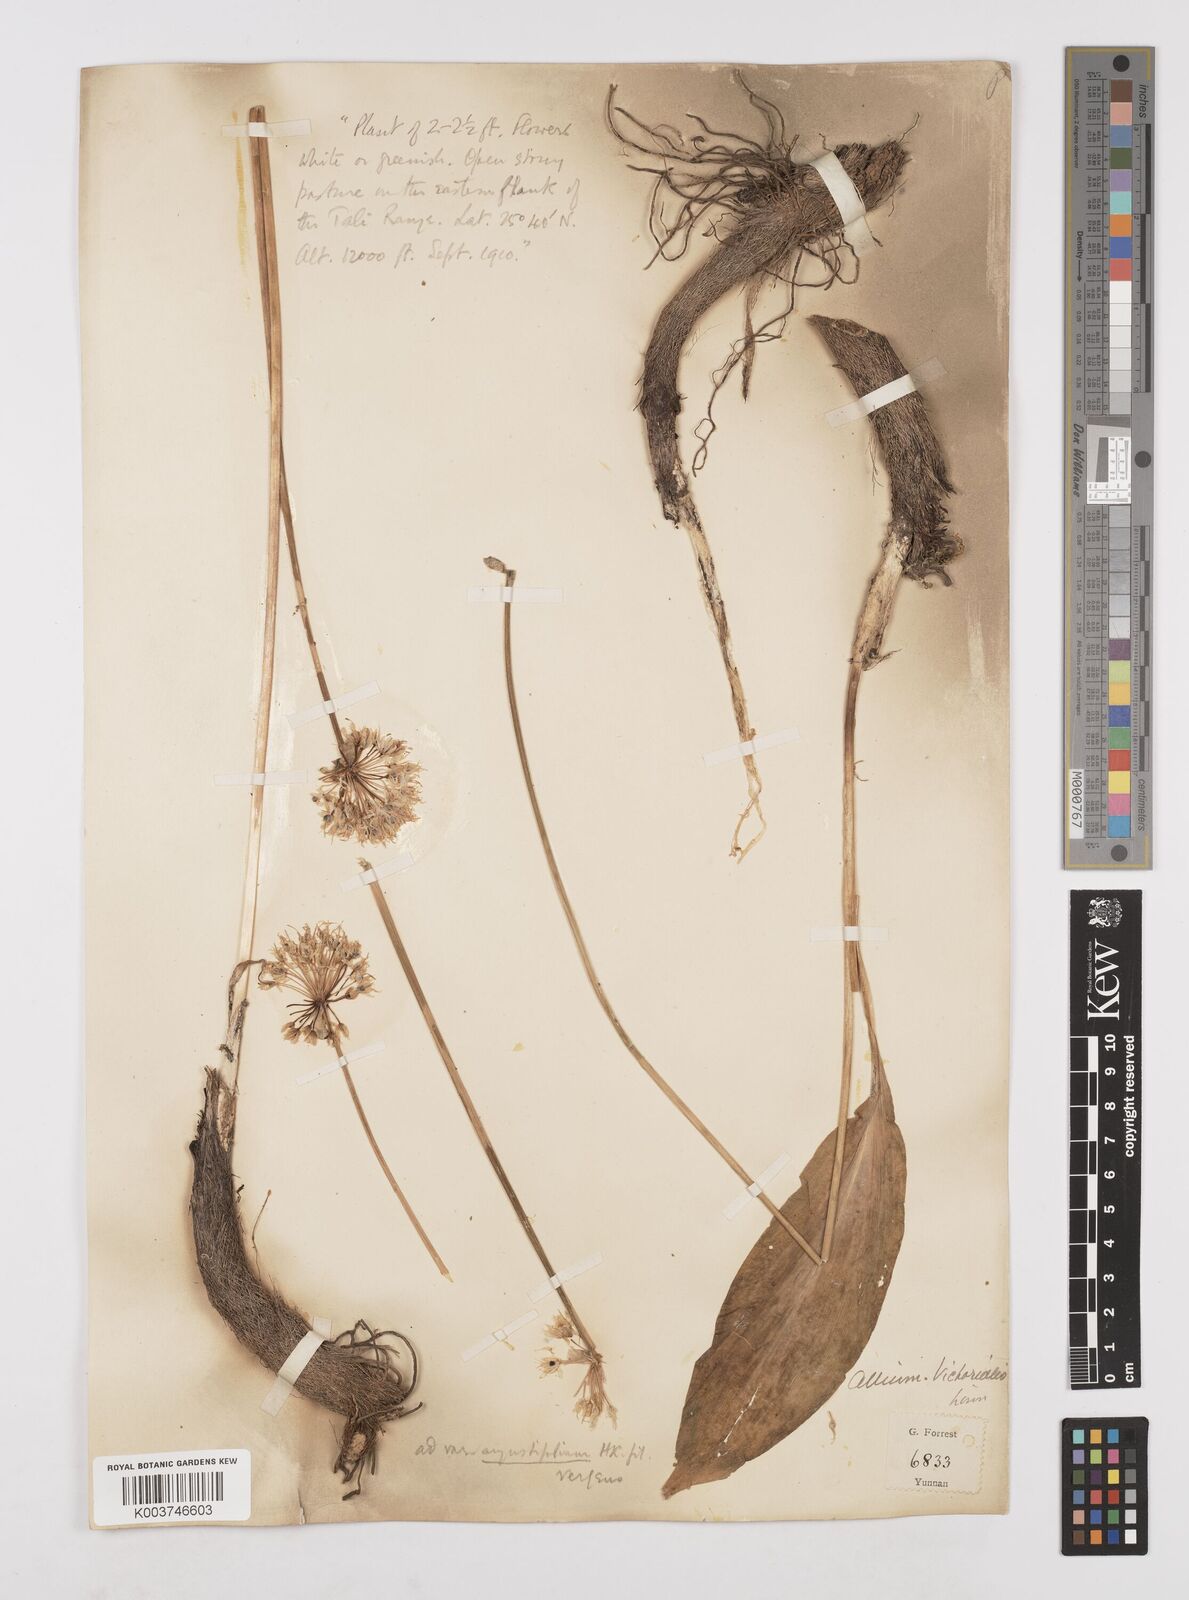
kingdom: Plantae
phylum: Tracheophyta
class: Liliopsida
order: Asparagales
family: Amaryllidaceae
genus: Allium
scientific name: Allium victorialis
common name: Alpine leek
